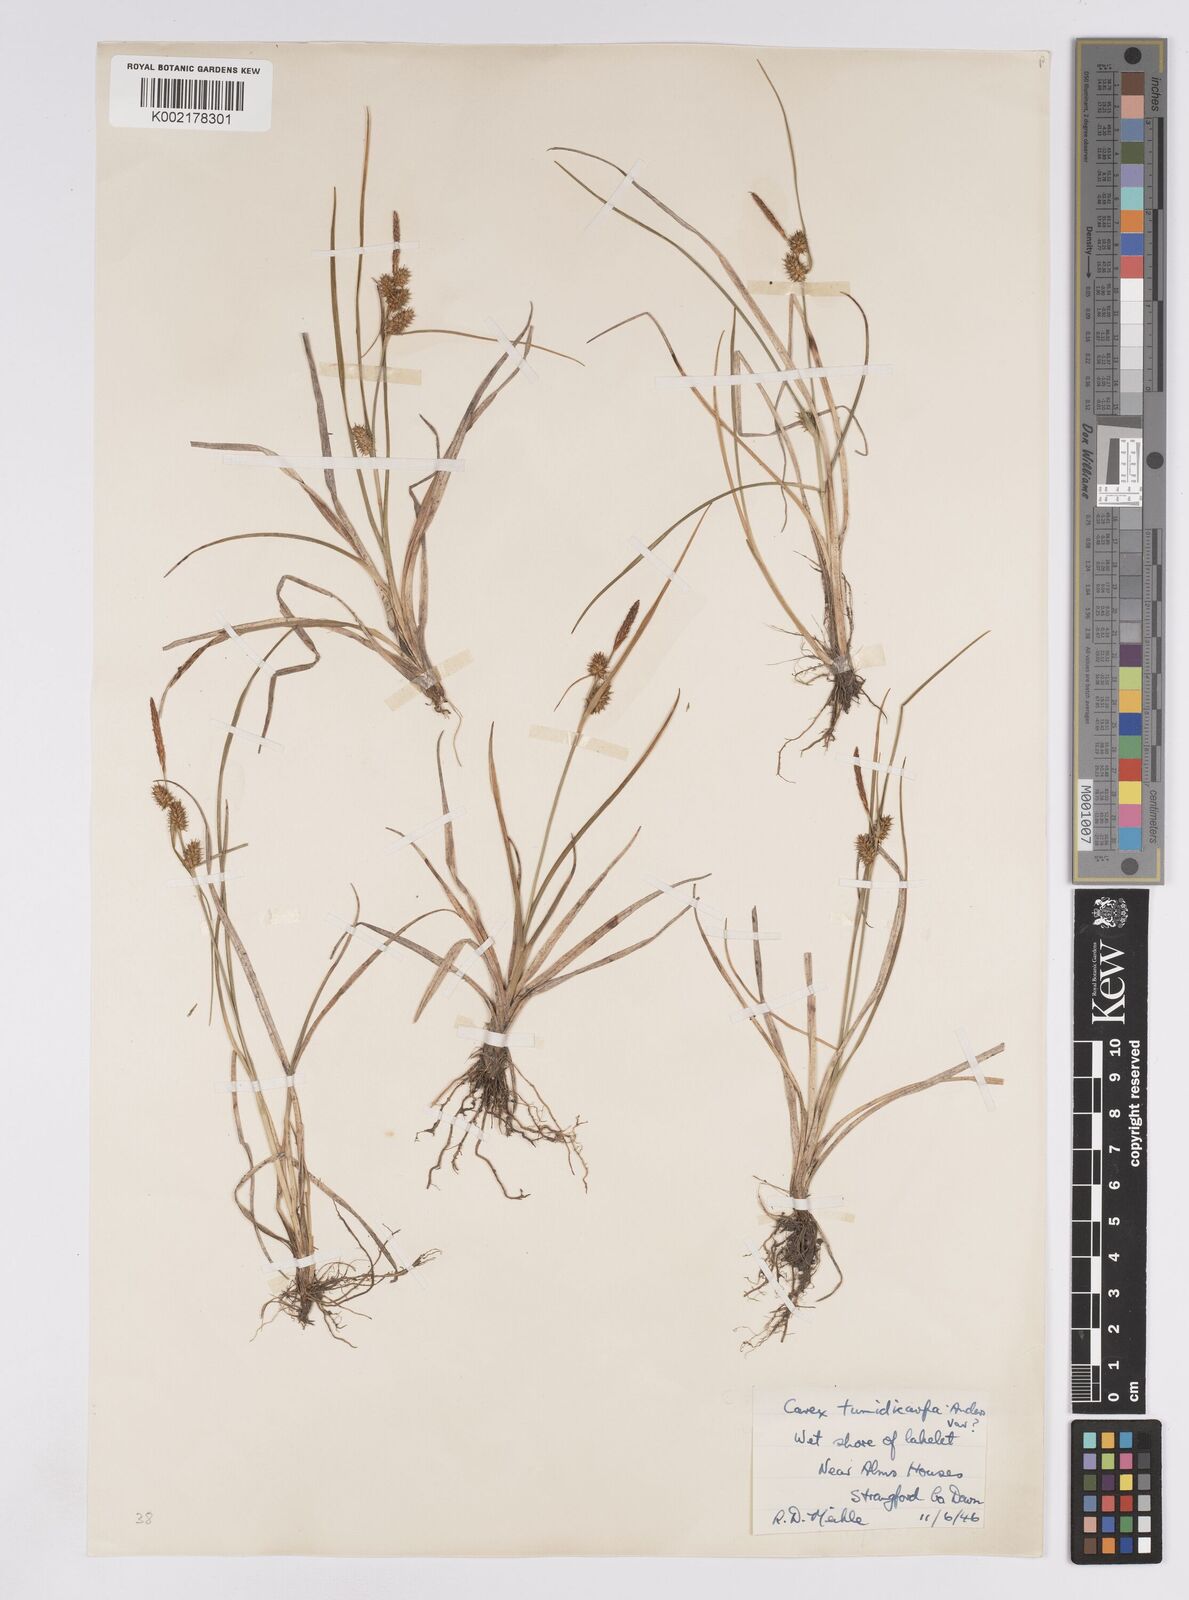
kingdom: Plantae
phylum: Tracheophyta
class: Liliopsida
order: Poales
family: Cyperaceae
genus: Carex
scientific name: Carex demissa
